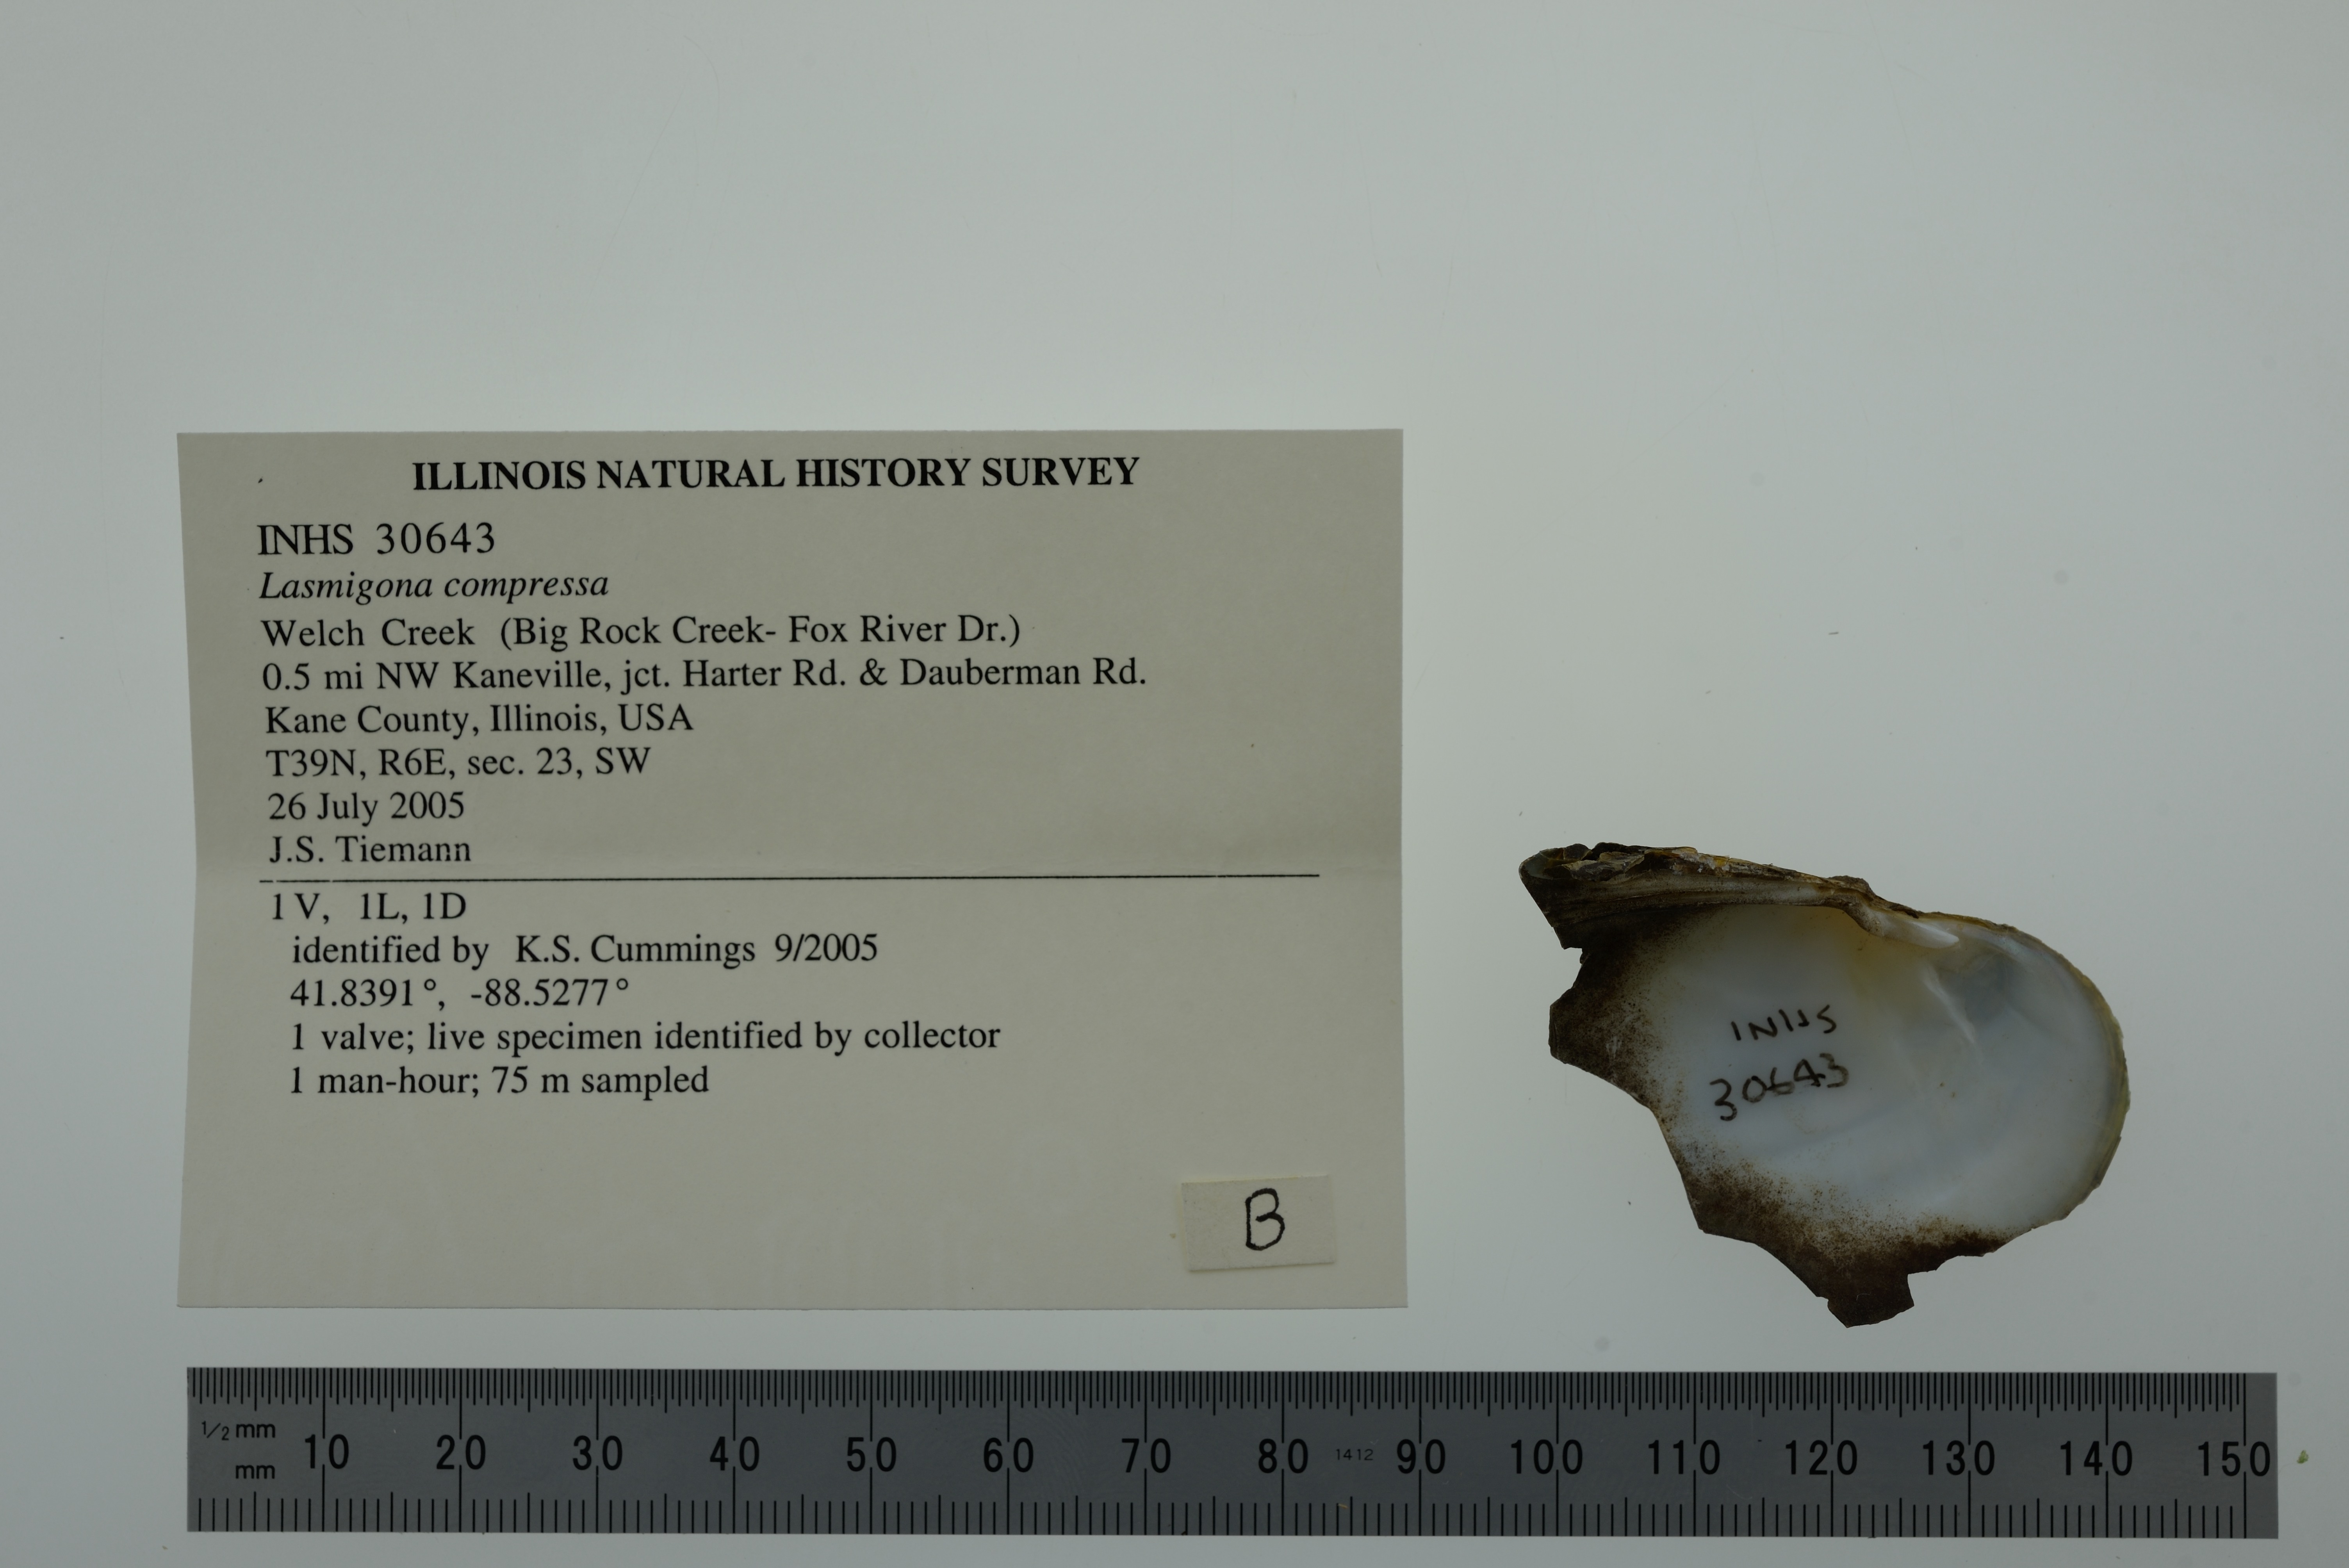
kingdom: Animalia
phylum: Mollusca
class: Bivalvia
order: Unionida
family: Unionidae
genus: Lasmigona
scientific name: Lasmigona compressa
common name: Creek heelsplitter
